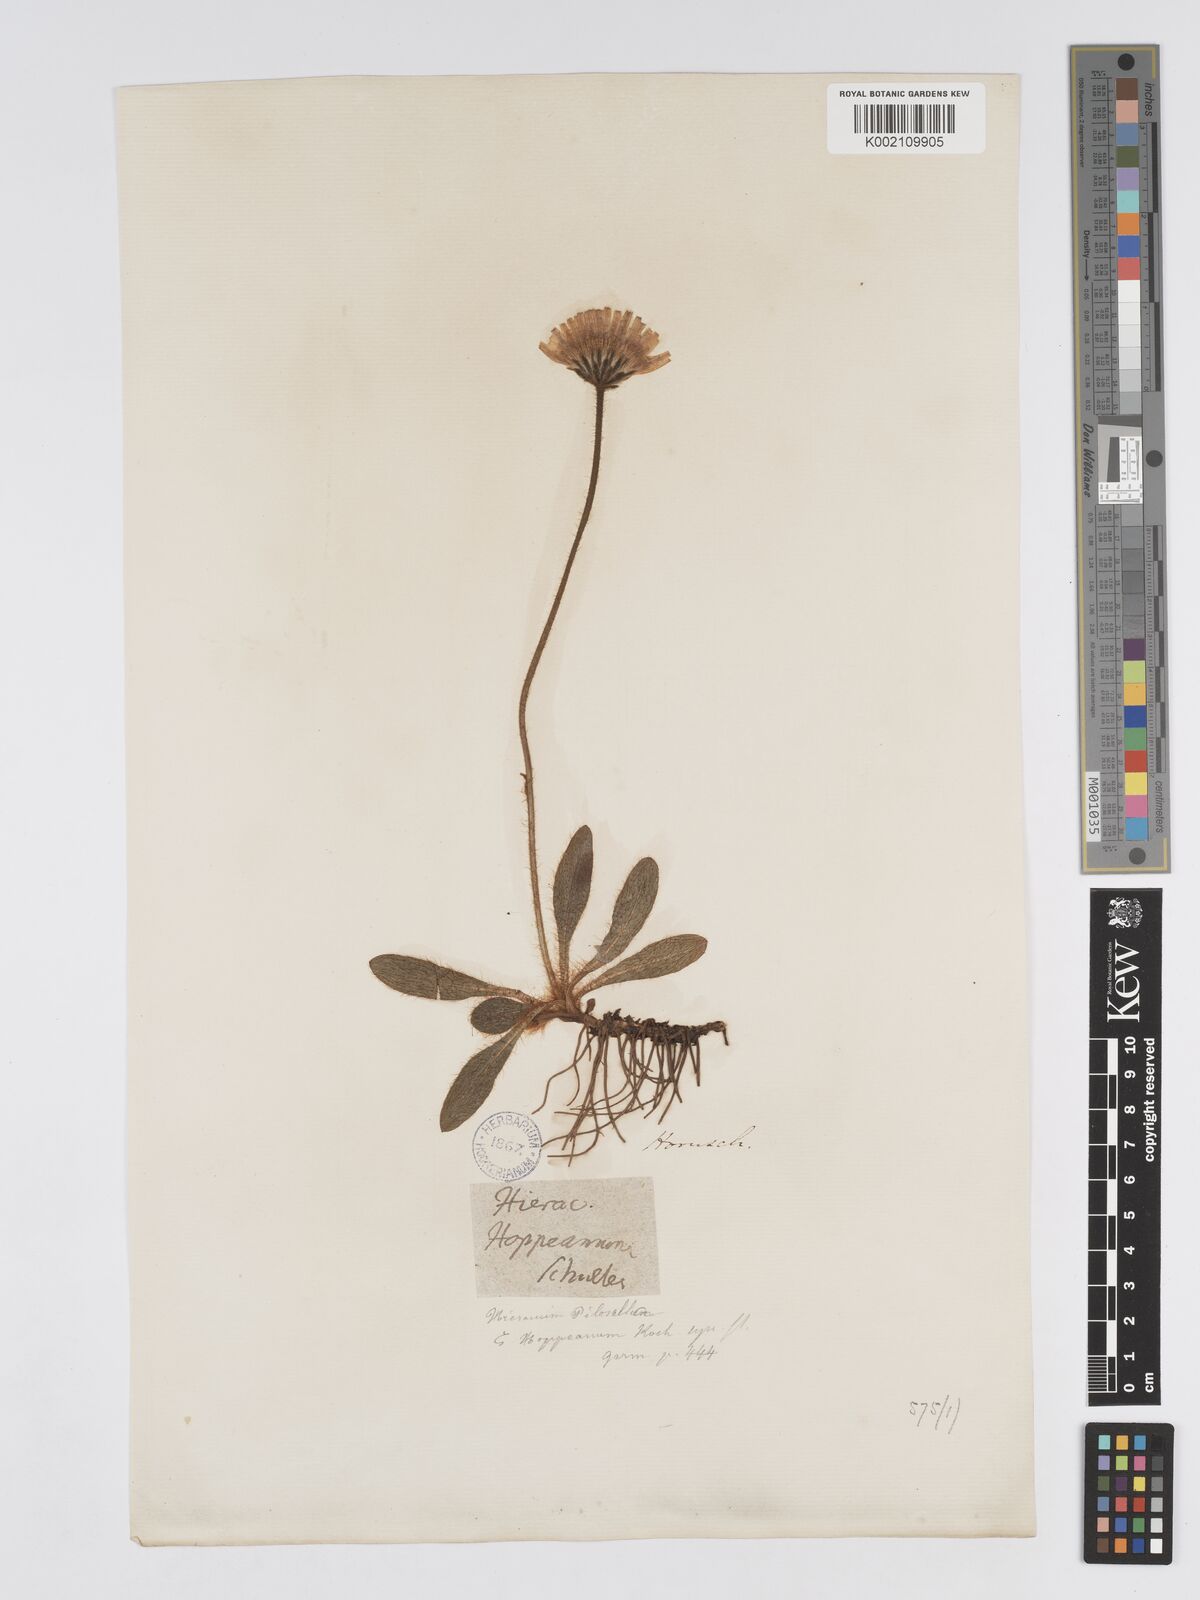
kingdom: Plantae
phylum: Tracheophyta
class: Magnoliopsida
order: Asterales
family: Asteraceae
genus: Pilosella
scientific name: Pilosella hoppeana
